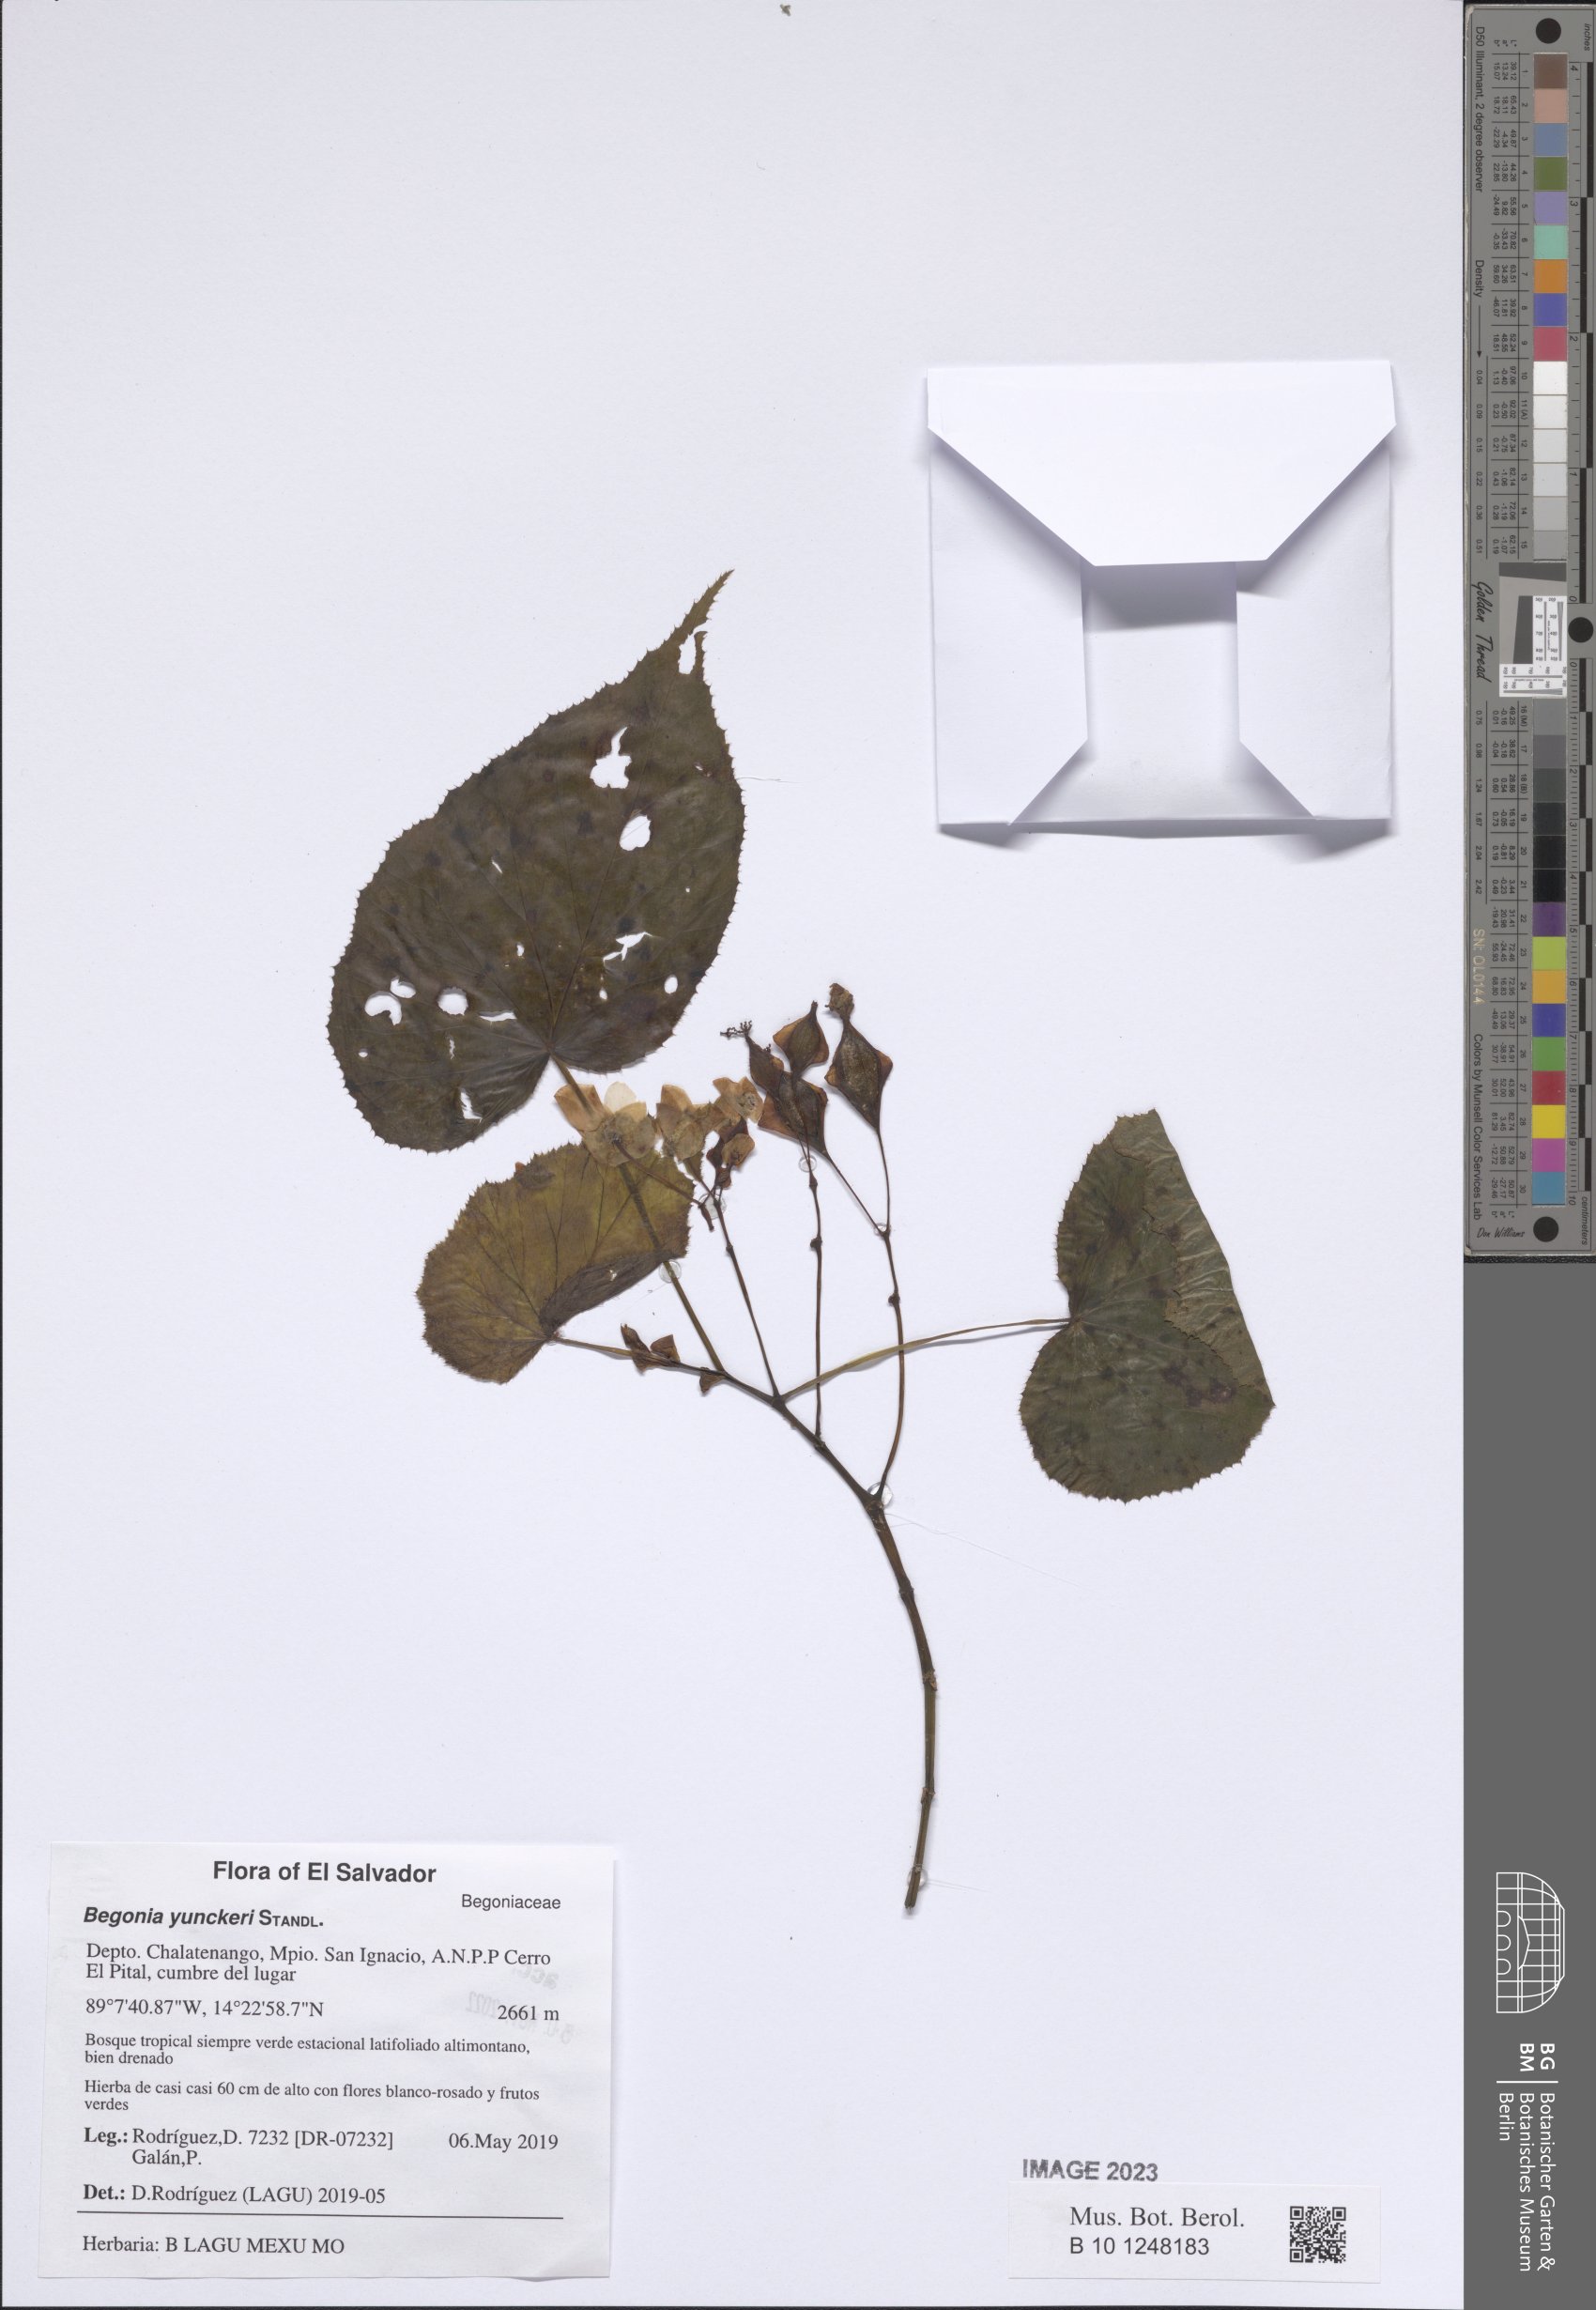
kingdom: Plantae
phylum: Tracheophyta
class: Magnoliopsida
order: Cucurbitales
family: Begoniaceae
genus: Begonia
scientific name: Begonia yunckeri
